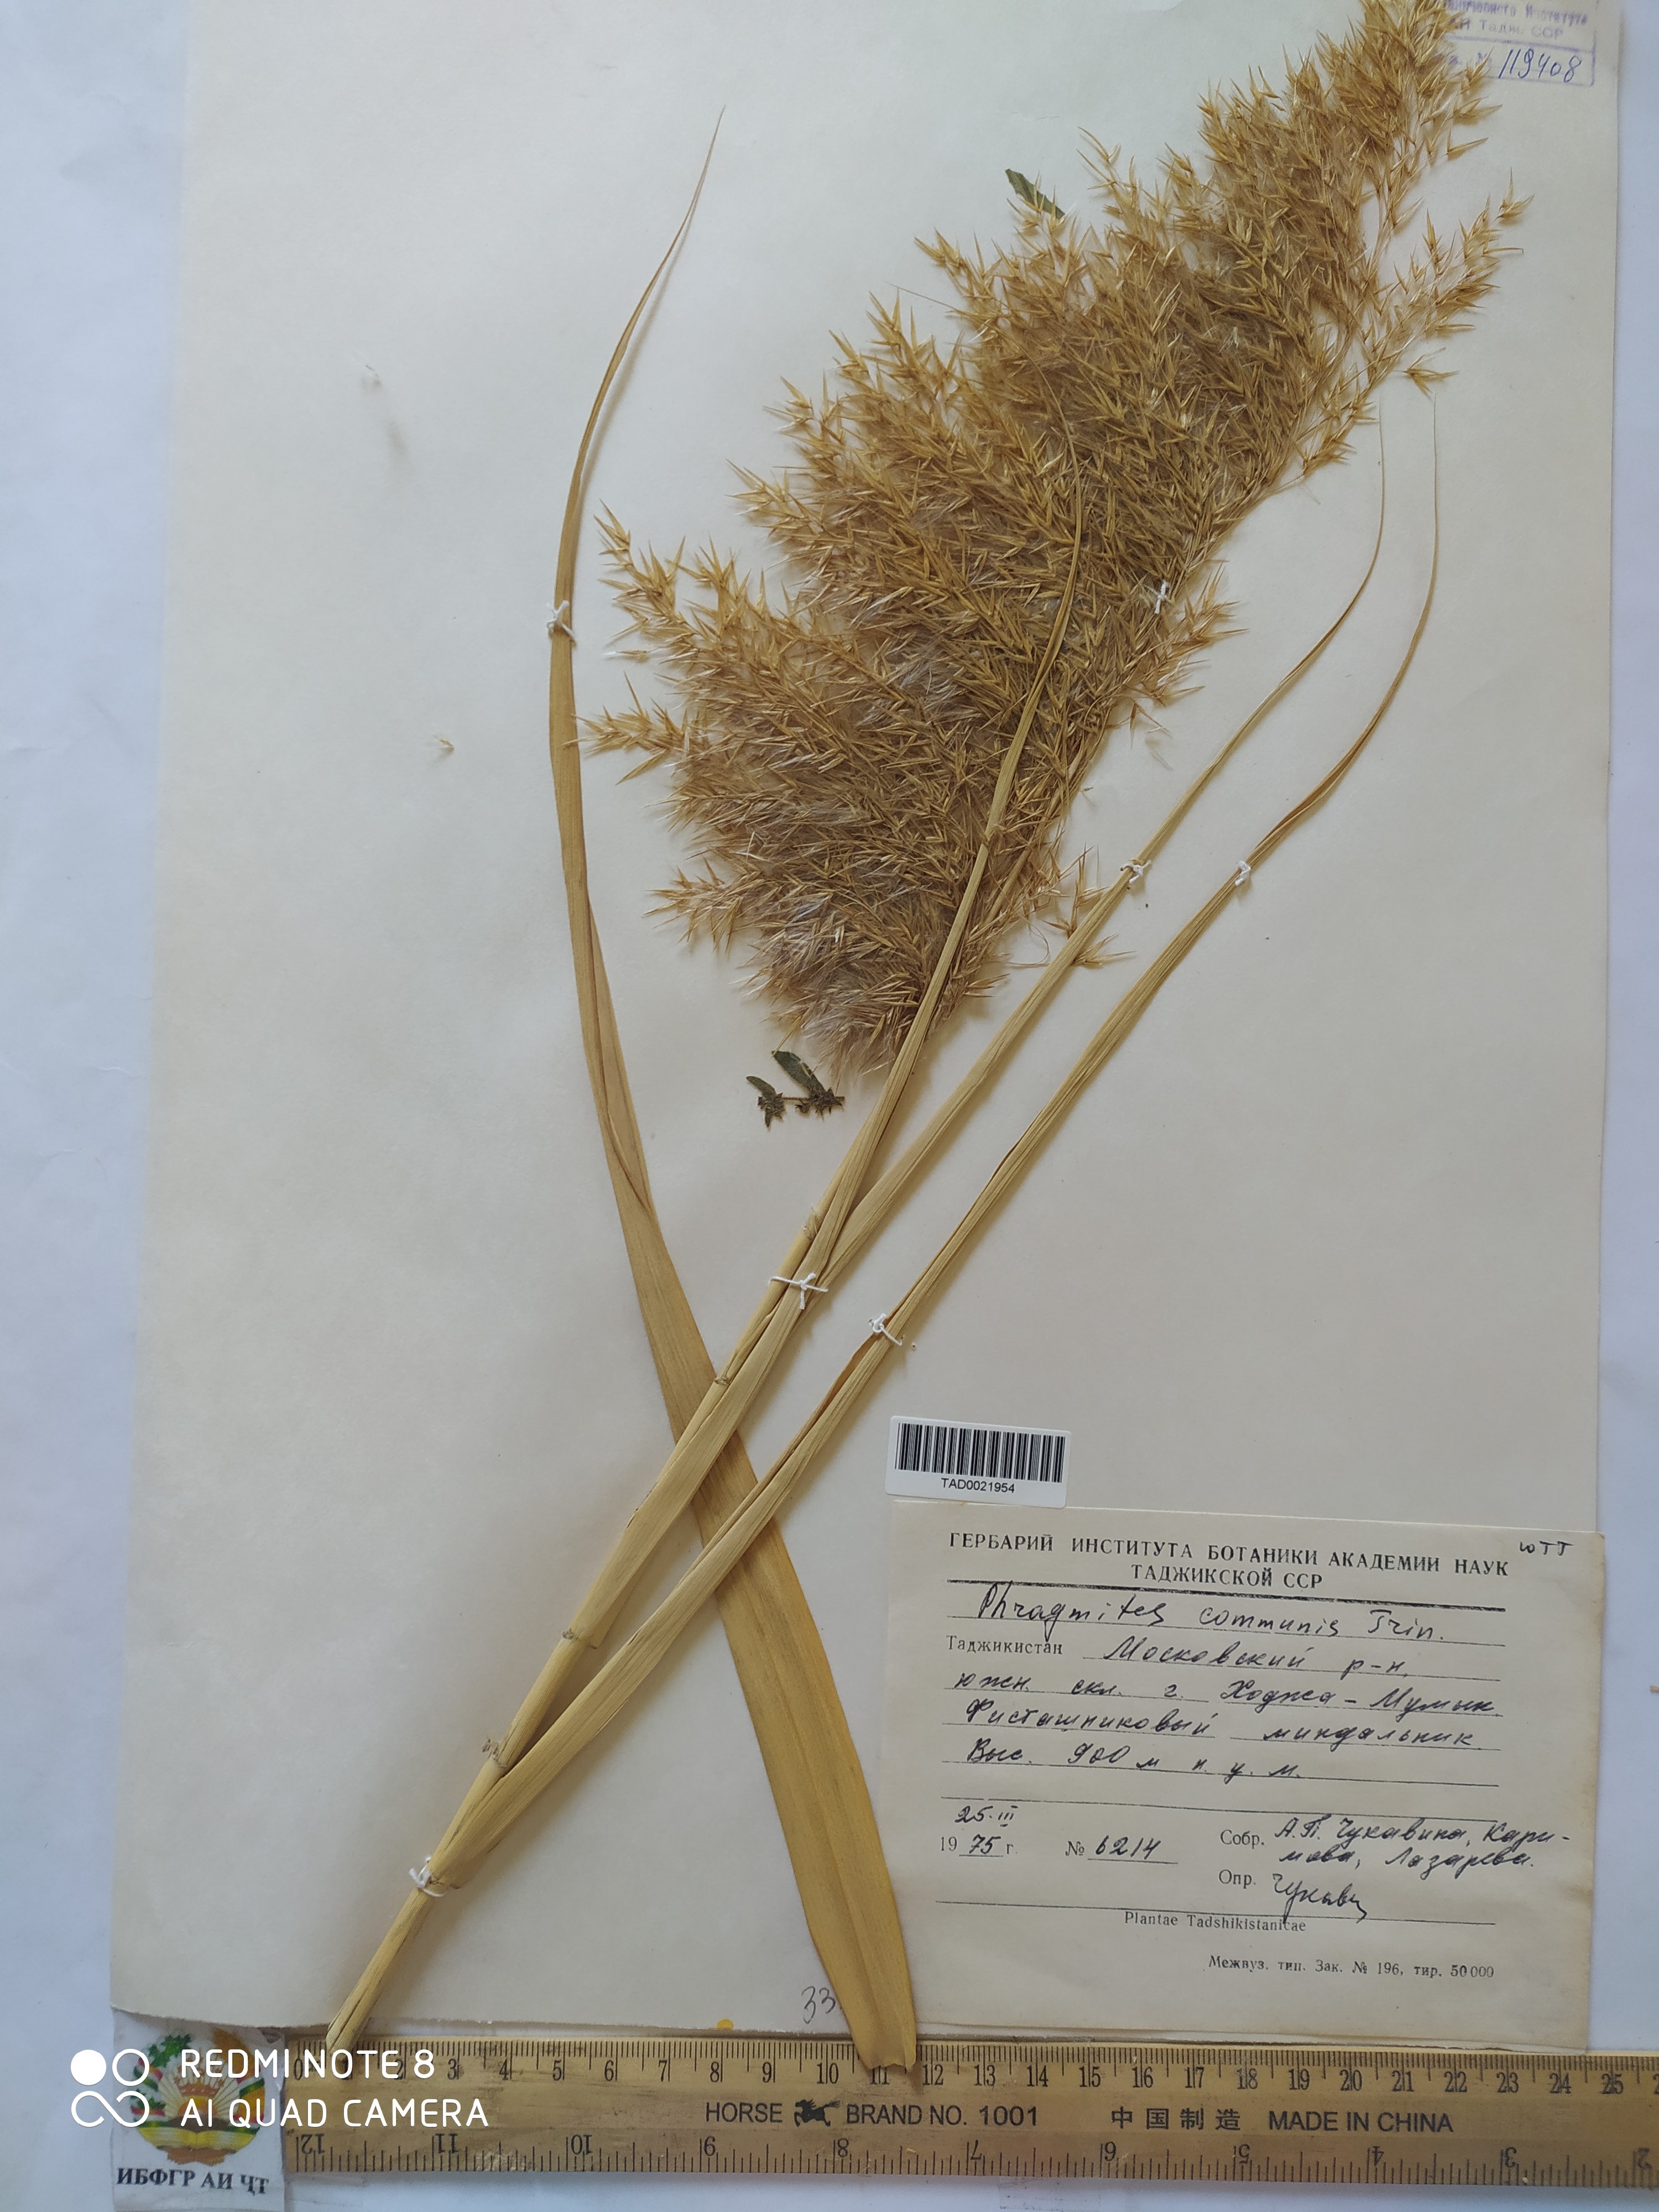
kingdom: Plantae
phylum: Tracheophyta
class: Liliopsida
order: Poales
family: Poaceae
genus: Phragmites
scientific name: Phragmites australis
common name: Common reed
